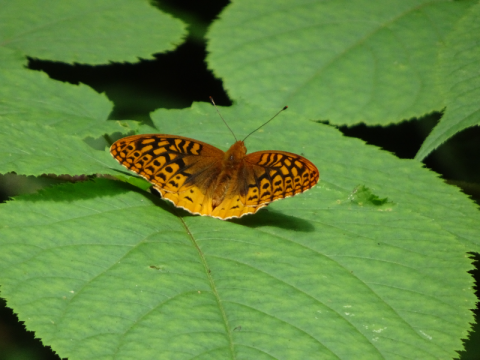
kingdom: Animalia
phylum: Arthropoda
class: Insecta
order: Lepidoptera
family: Nymphalidae
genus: Speyeria
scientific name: Speyeria cybele
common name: Great Spangled Fritillary
